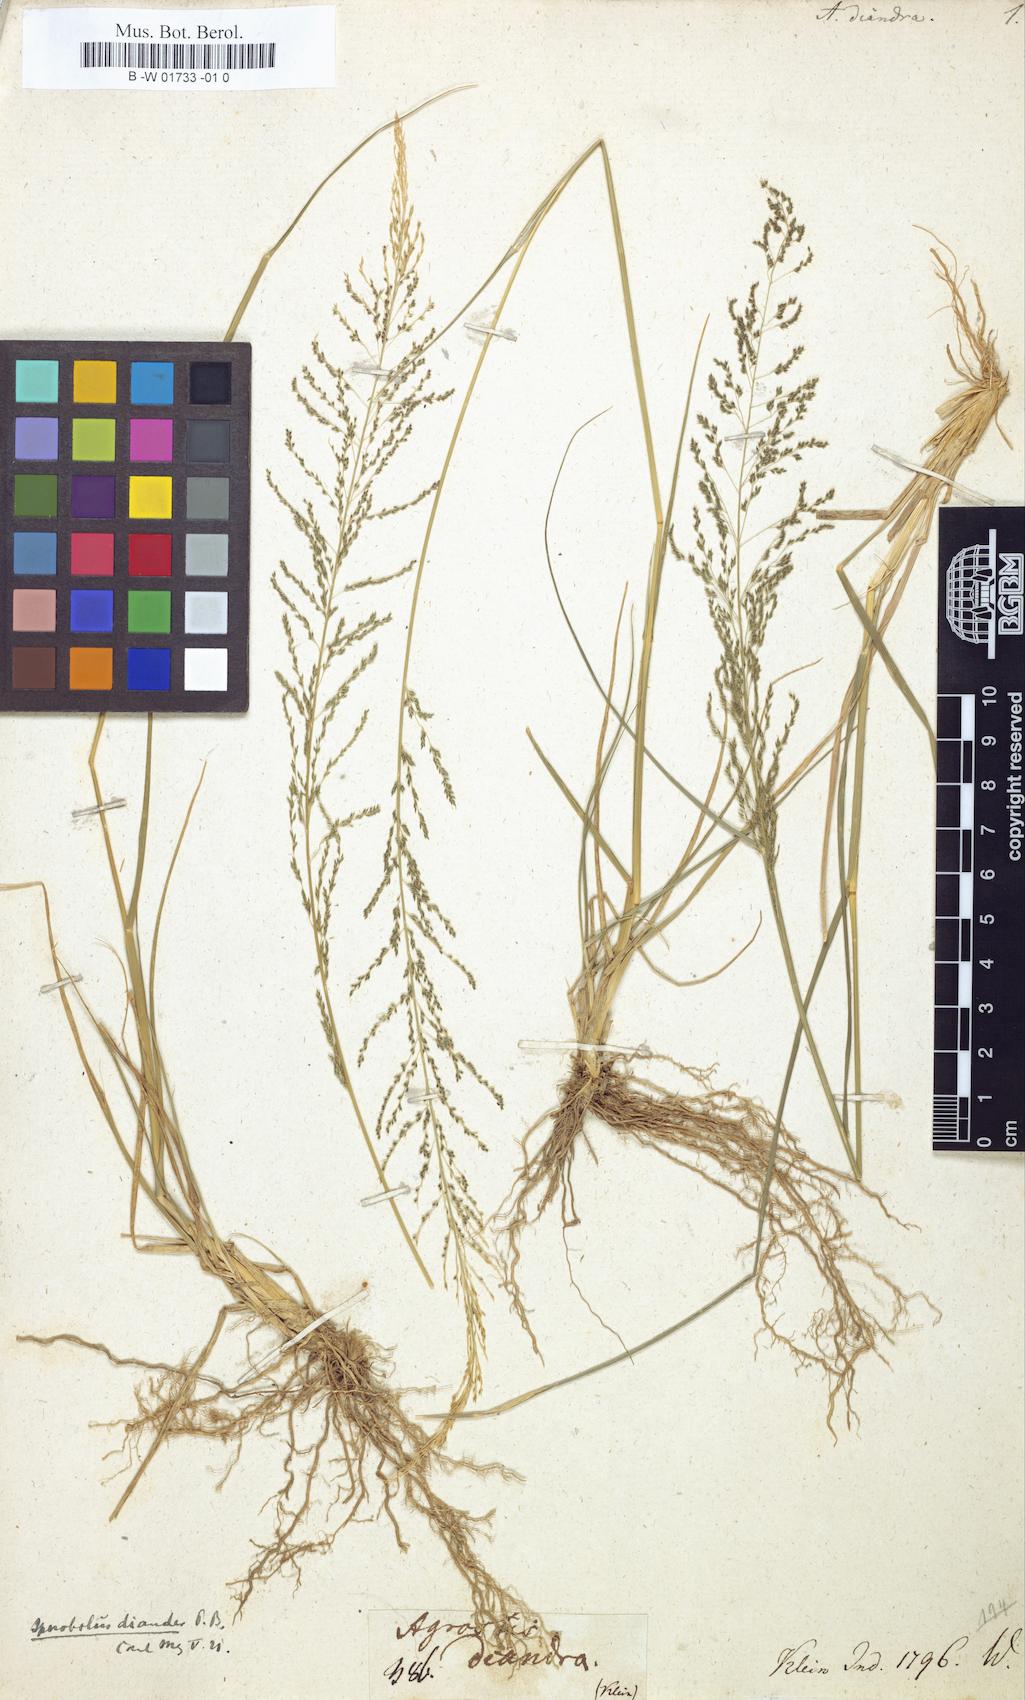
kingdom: Plantae
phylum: Tracheophyta
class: Liliopsida
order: Poales
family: Poaceae
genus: Sporobolus
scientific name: Sporobolus diandrus
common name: Tussock dropseed
